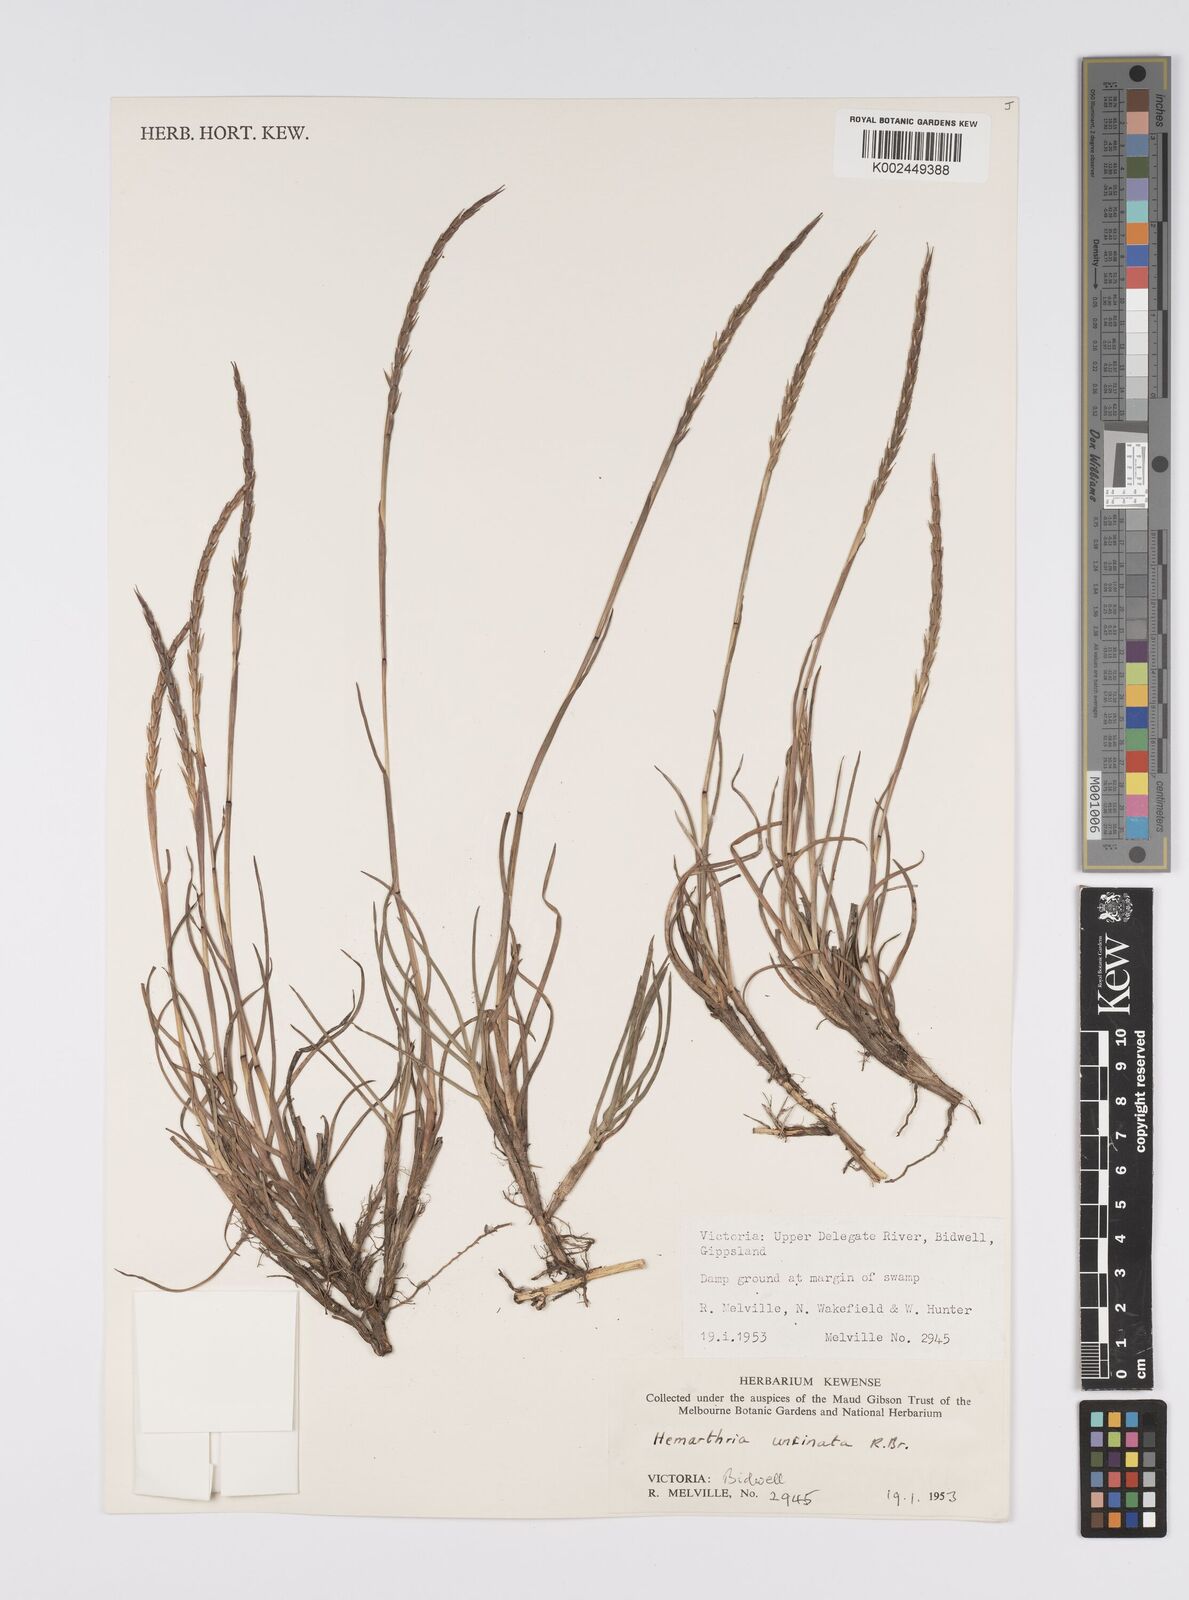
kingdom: Plantae
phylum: Tracheophyta
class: Liliopsida
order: Poales
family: Poaceae
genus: Hemarthria
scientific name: Hemarthria uncinata
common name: Matgrass
